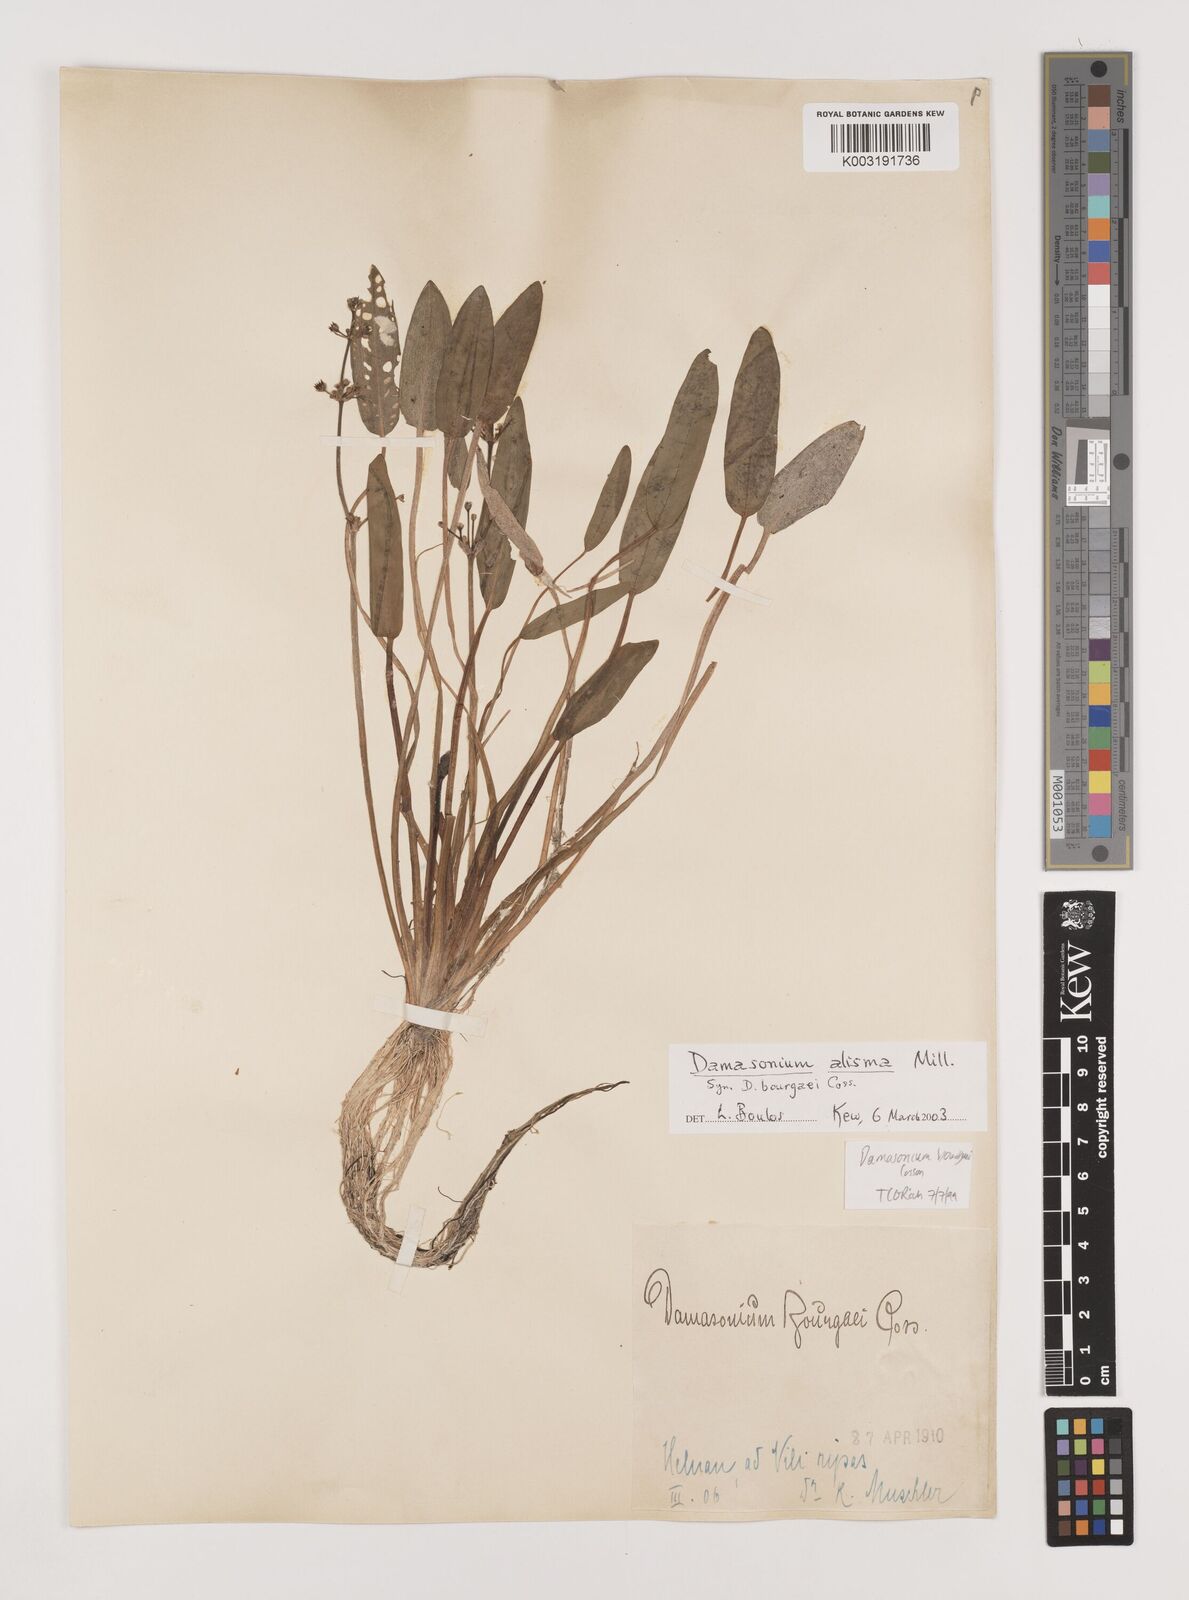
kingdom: Plantae
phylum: Tracheophyta
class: Liliopsida
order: Alismatales
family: Alismataceae
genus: Damasonium
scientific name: Damasonium bourgaei
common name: Starfruit
